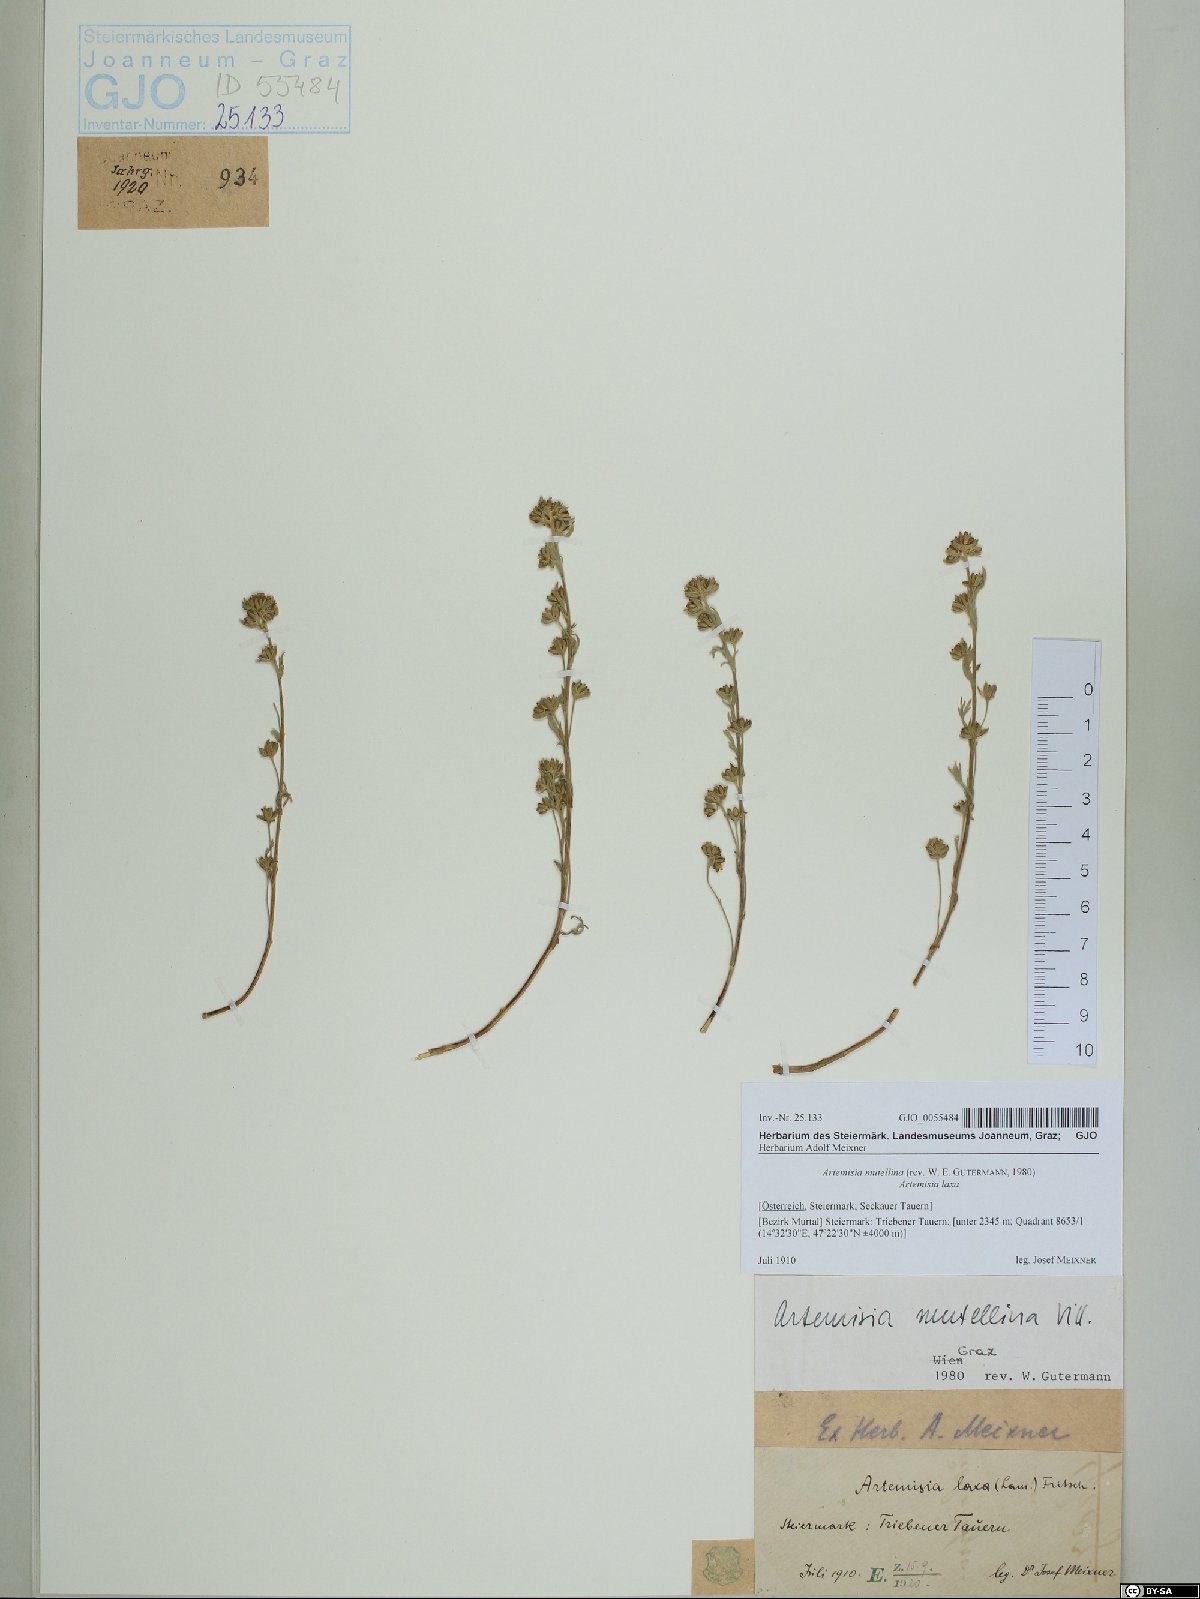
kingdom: Plantae
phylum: Tracheophyta
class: Magnoliopsida
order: Asterales
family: Asteraceae
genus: Artemisia
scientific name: Artemisia mutellina
